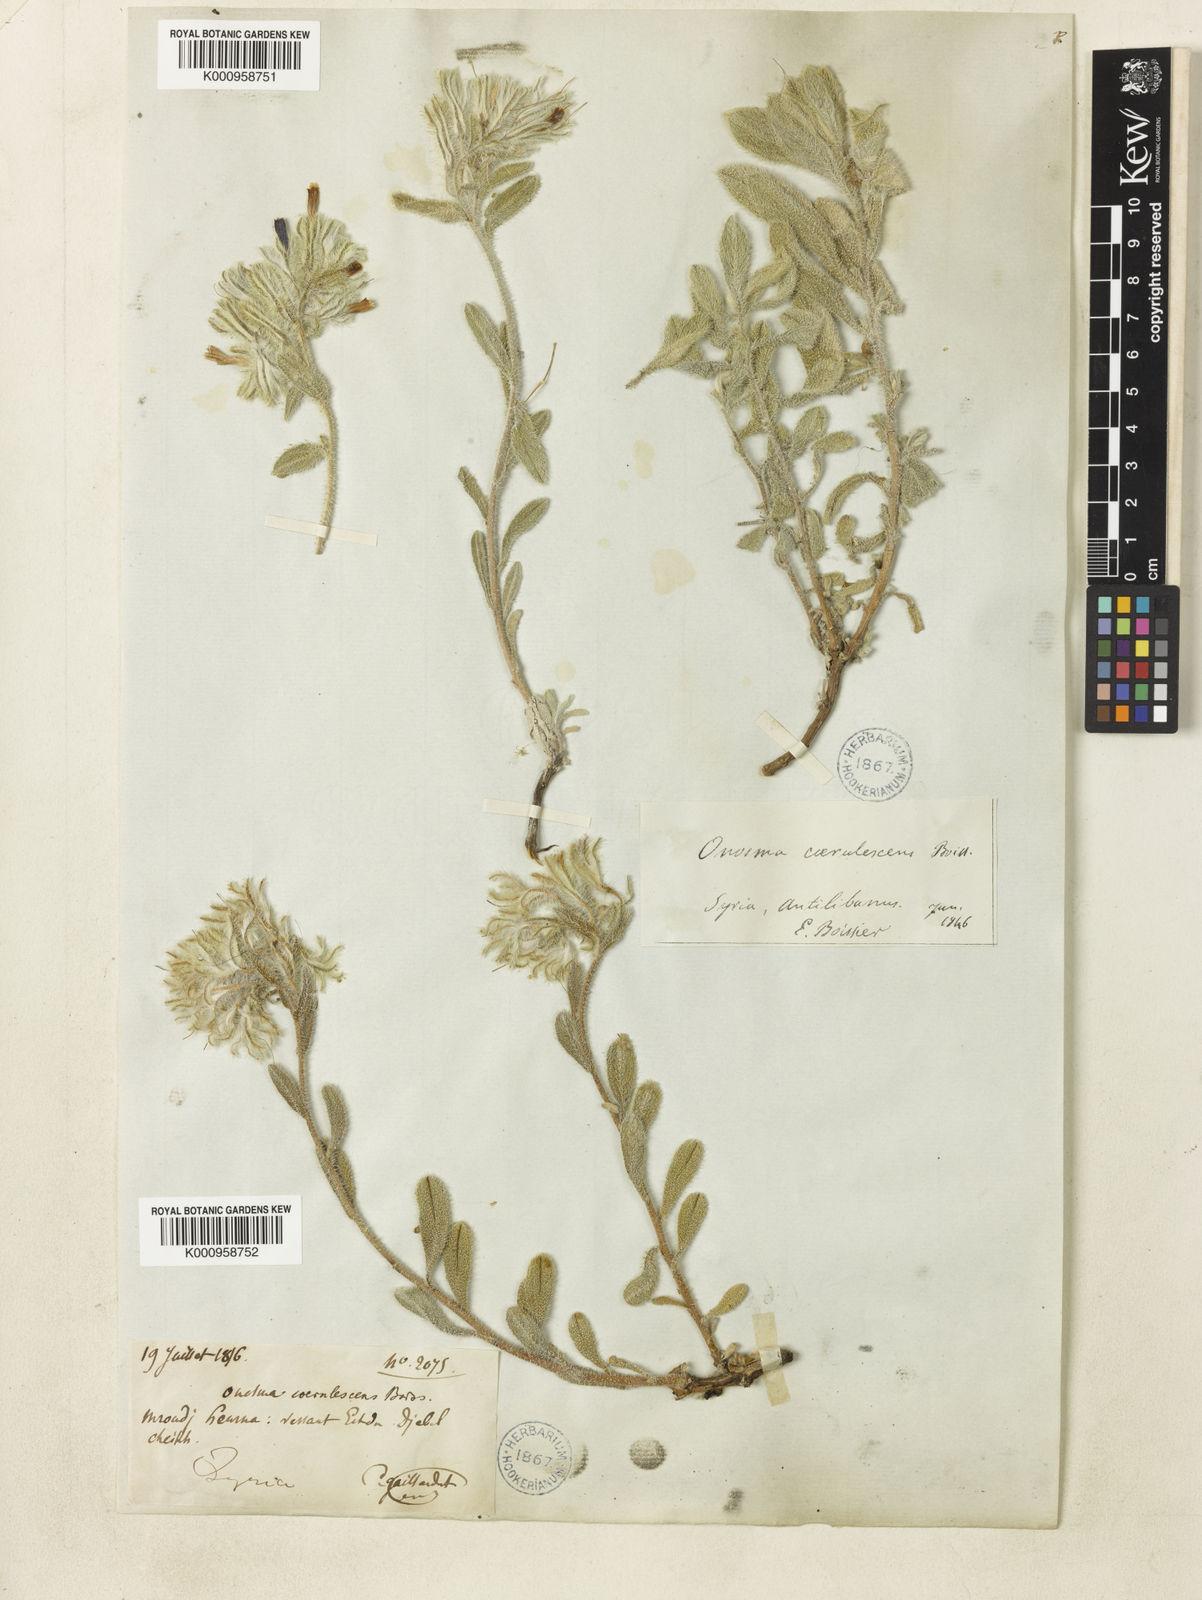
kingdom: Plantae
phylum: Tracheophyta
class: Magnoliopsida
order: Boraginales
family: Boraginaceae
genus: Onosma
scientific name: Onosma caerulescens
